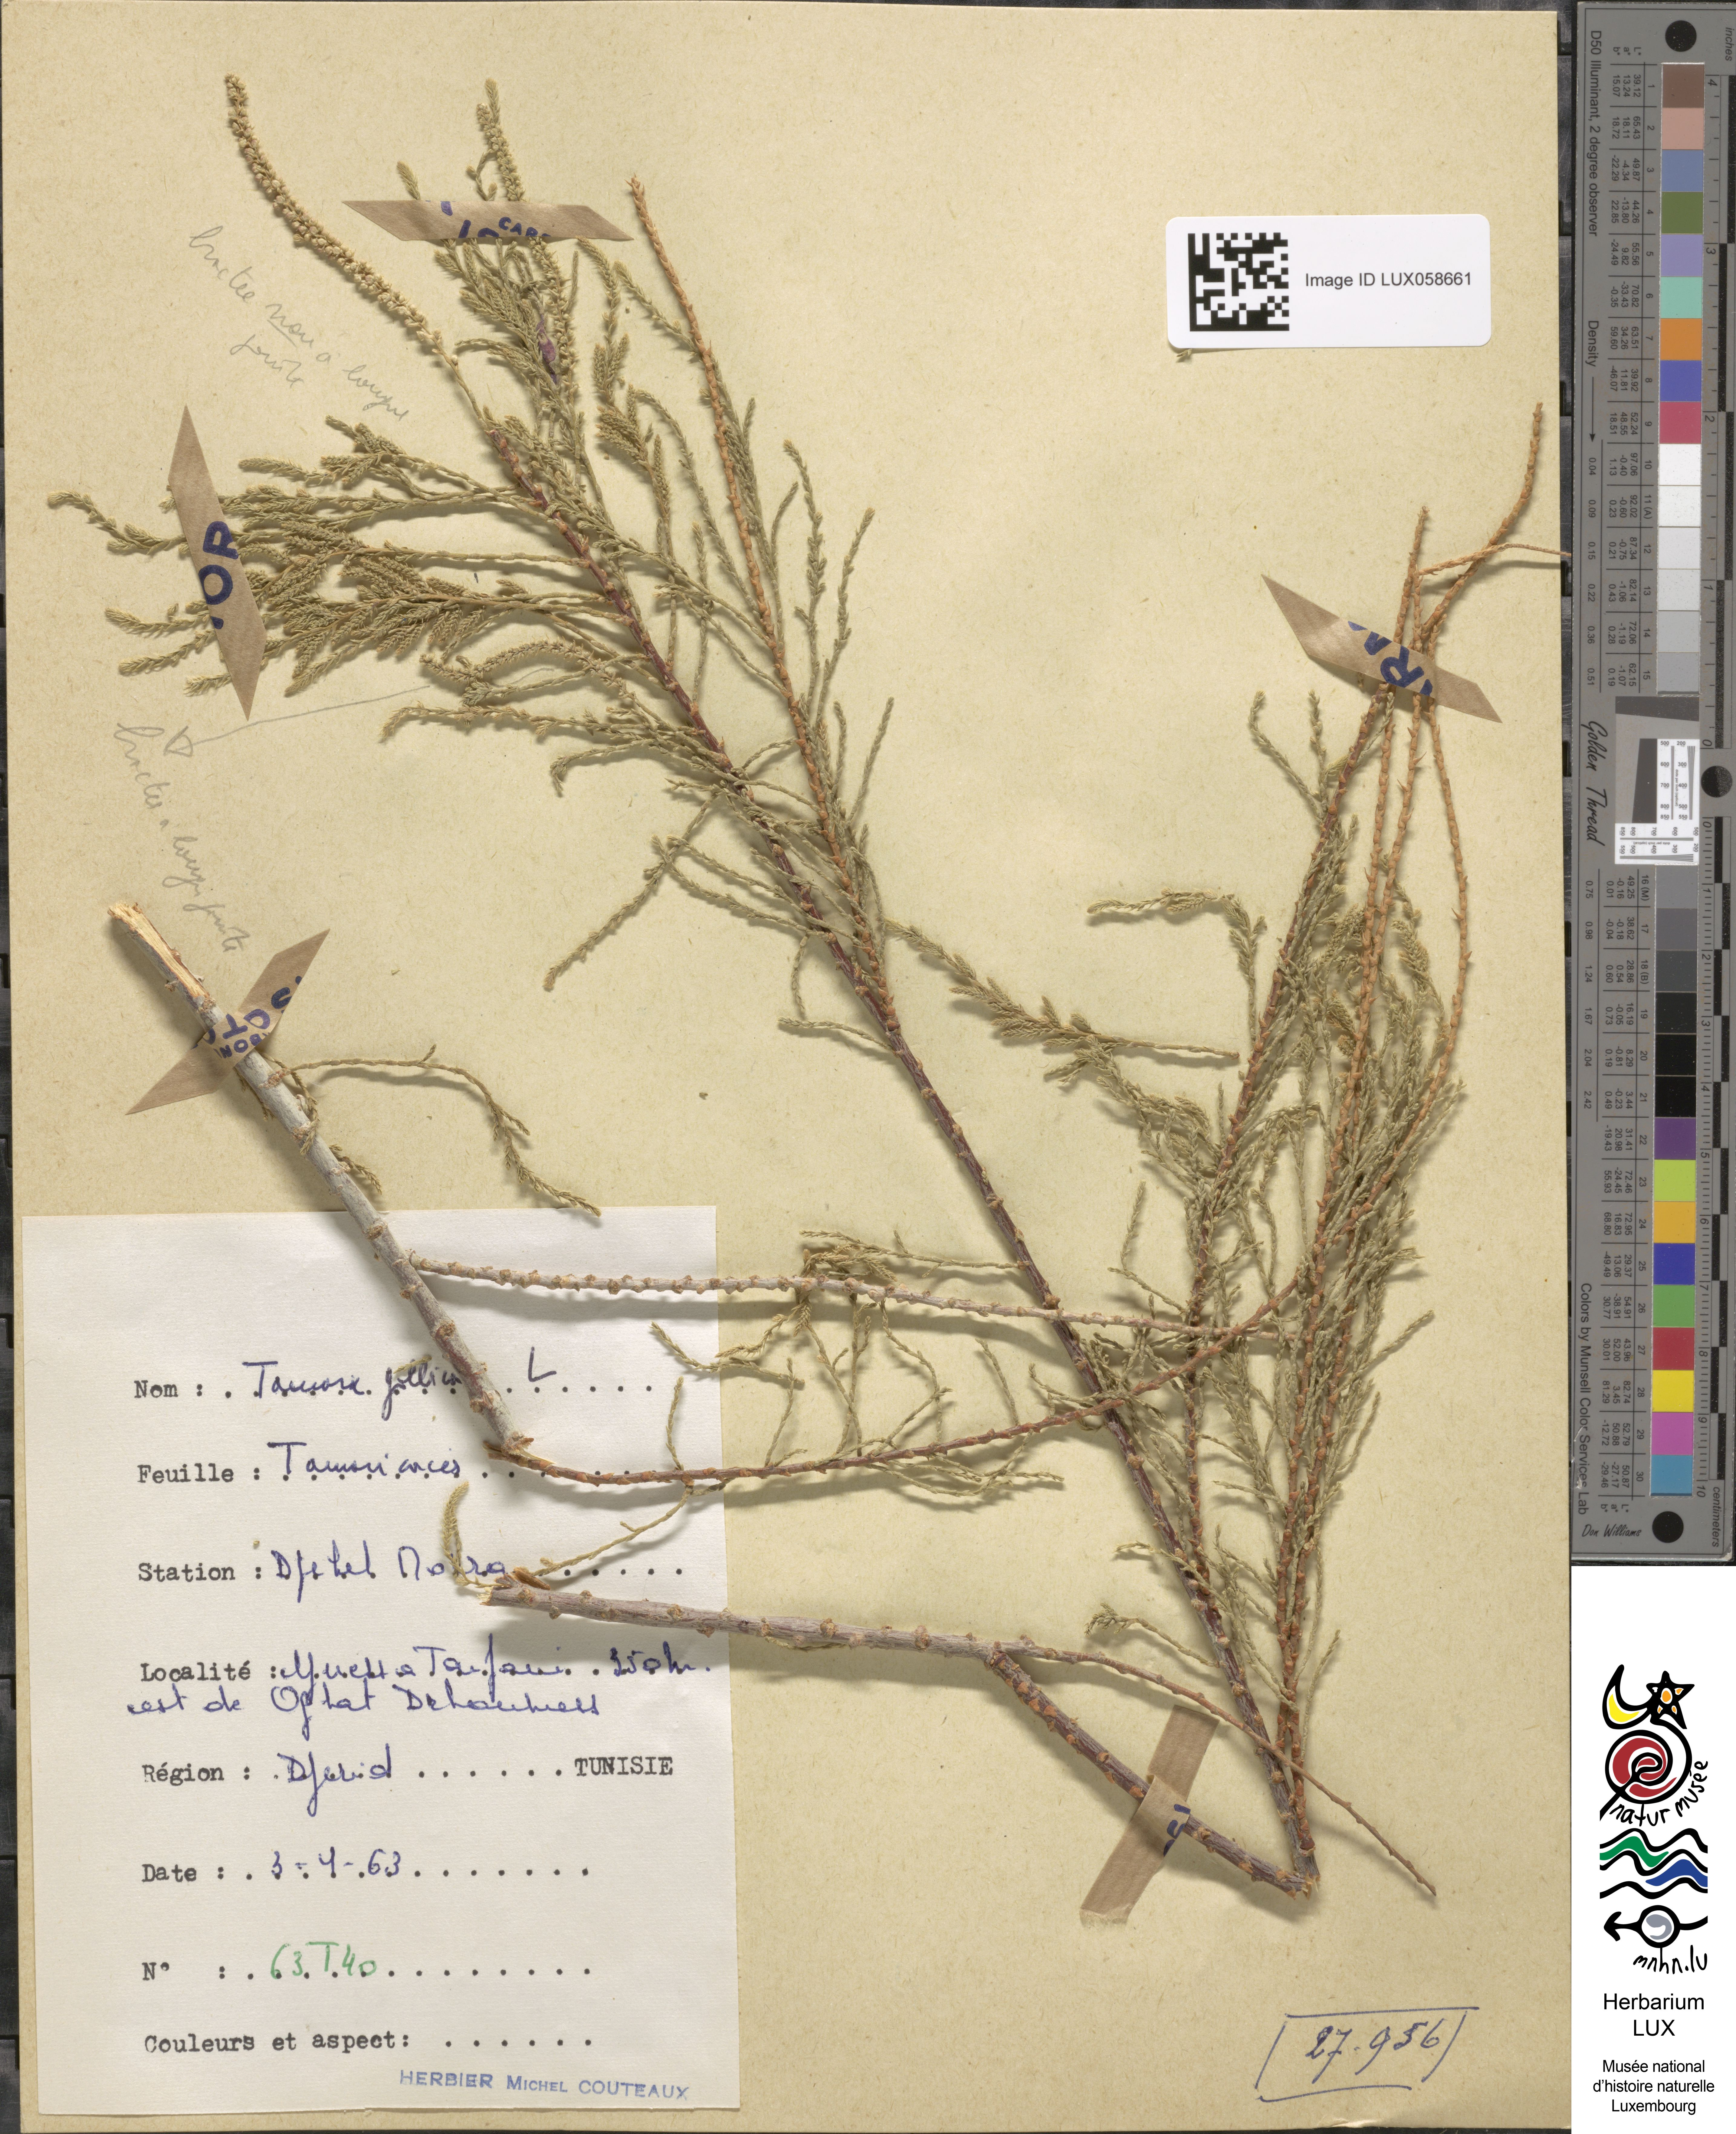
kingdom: Plantae
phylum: Tracheophyta
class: Magnoliopsida
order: Caryophyllales
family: Tamaricaceae
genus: Tamarix
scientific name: Tamarix gallica
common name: Tamarisk
